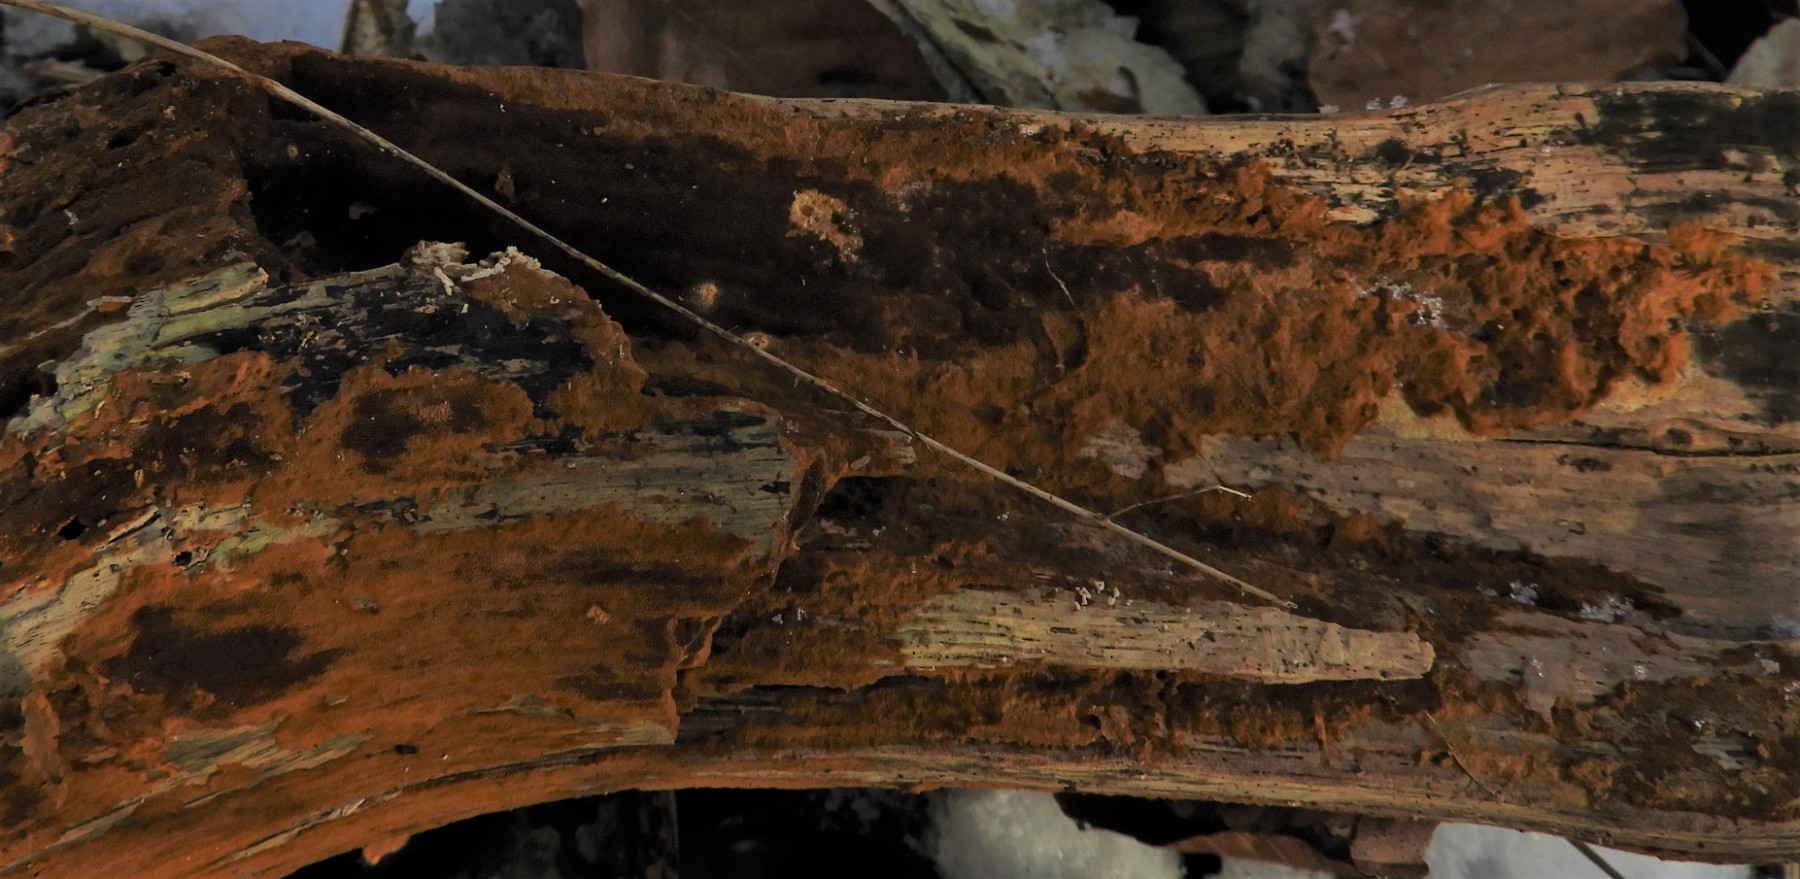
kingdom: Fungi
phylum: Basidiomycota
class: Agaricomycetes
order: Hymenochaetales
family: Hymenochaetaceae
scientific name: Hymenochaetaceae
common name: børstesvampfamilien
